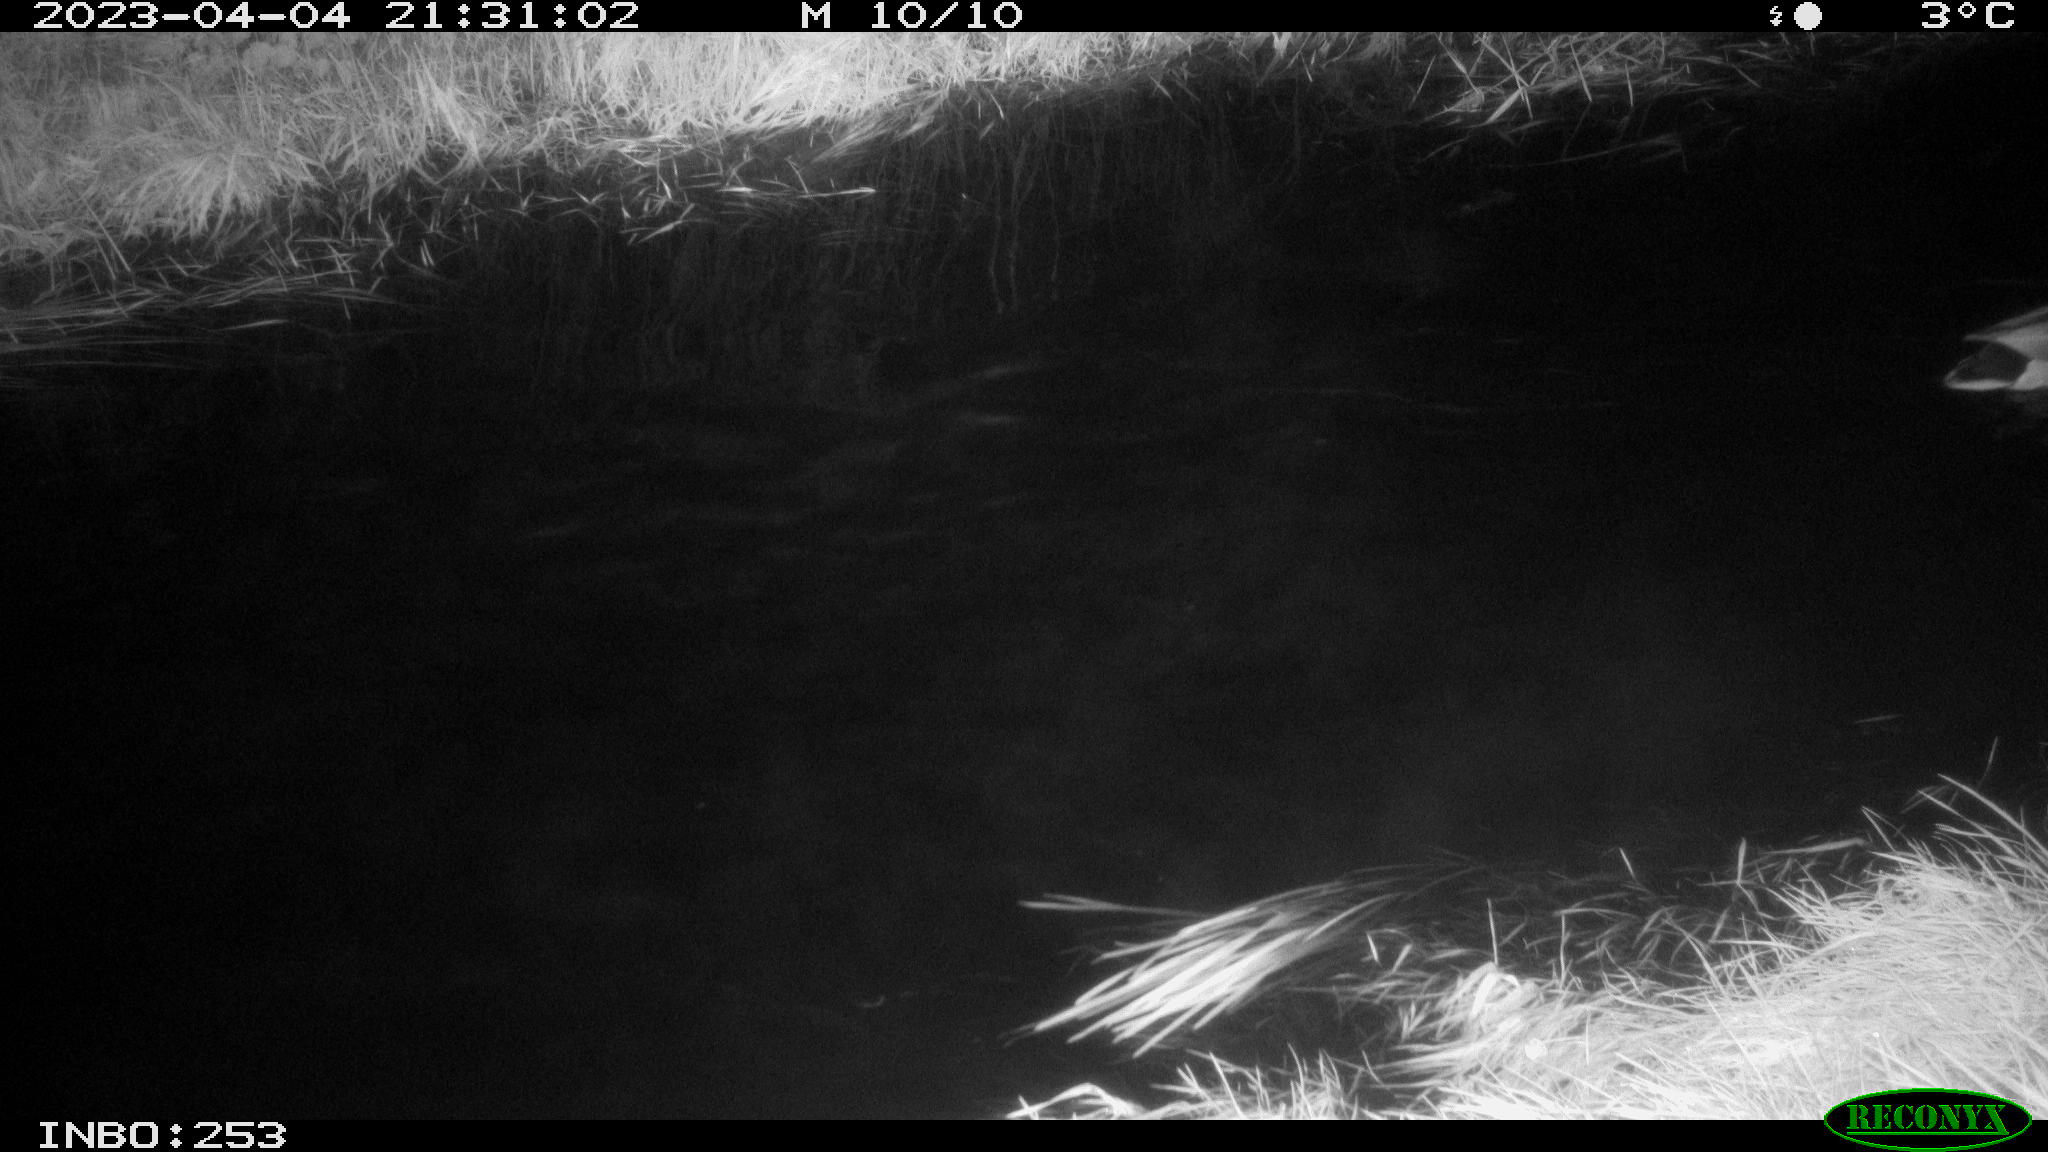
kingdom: Animalia
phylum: Chordata
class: Aves
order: Anseriformes
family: Anatidae
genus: Anas
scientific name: Anas
